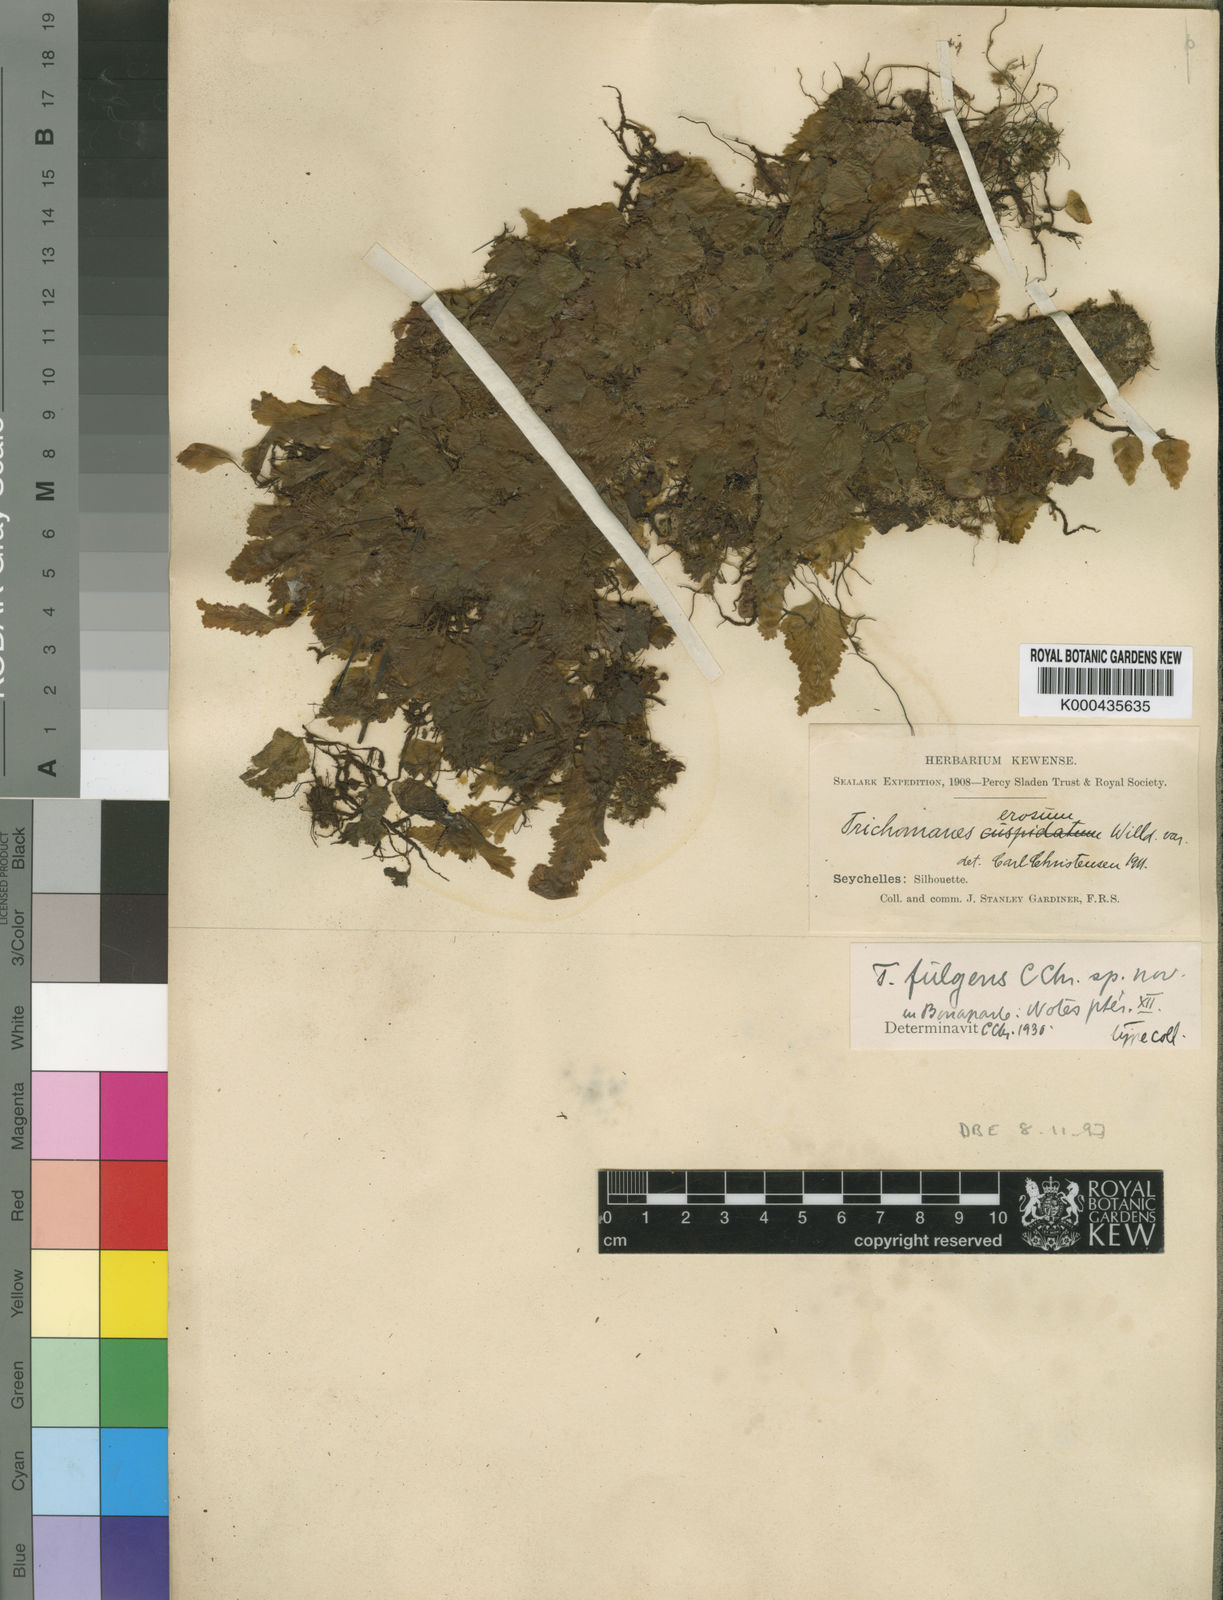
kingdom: Plantae
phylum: Tracheophyta
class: Polypodiopsida
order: Hymenophyllales
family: Hymenophyllaceae
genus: Didymoglossum
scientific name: Didymoglossum fulgens
